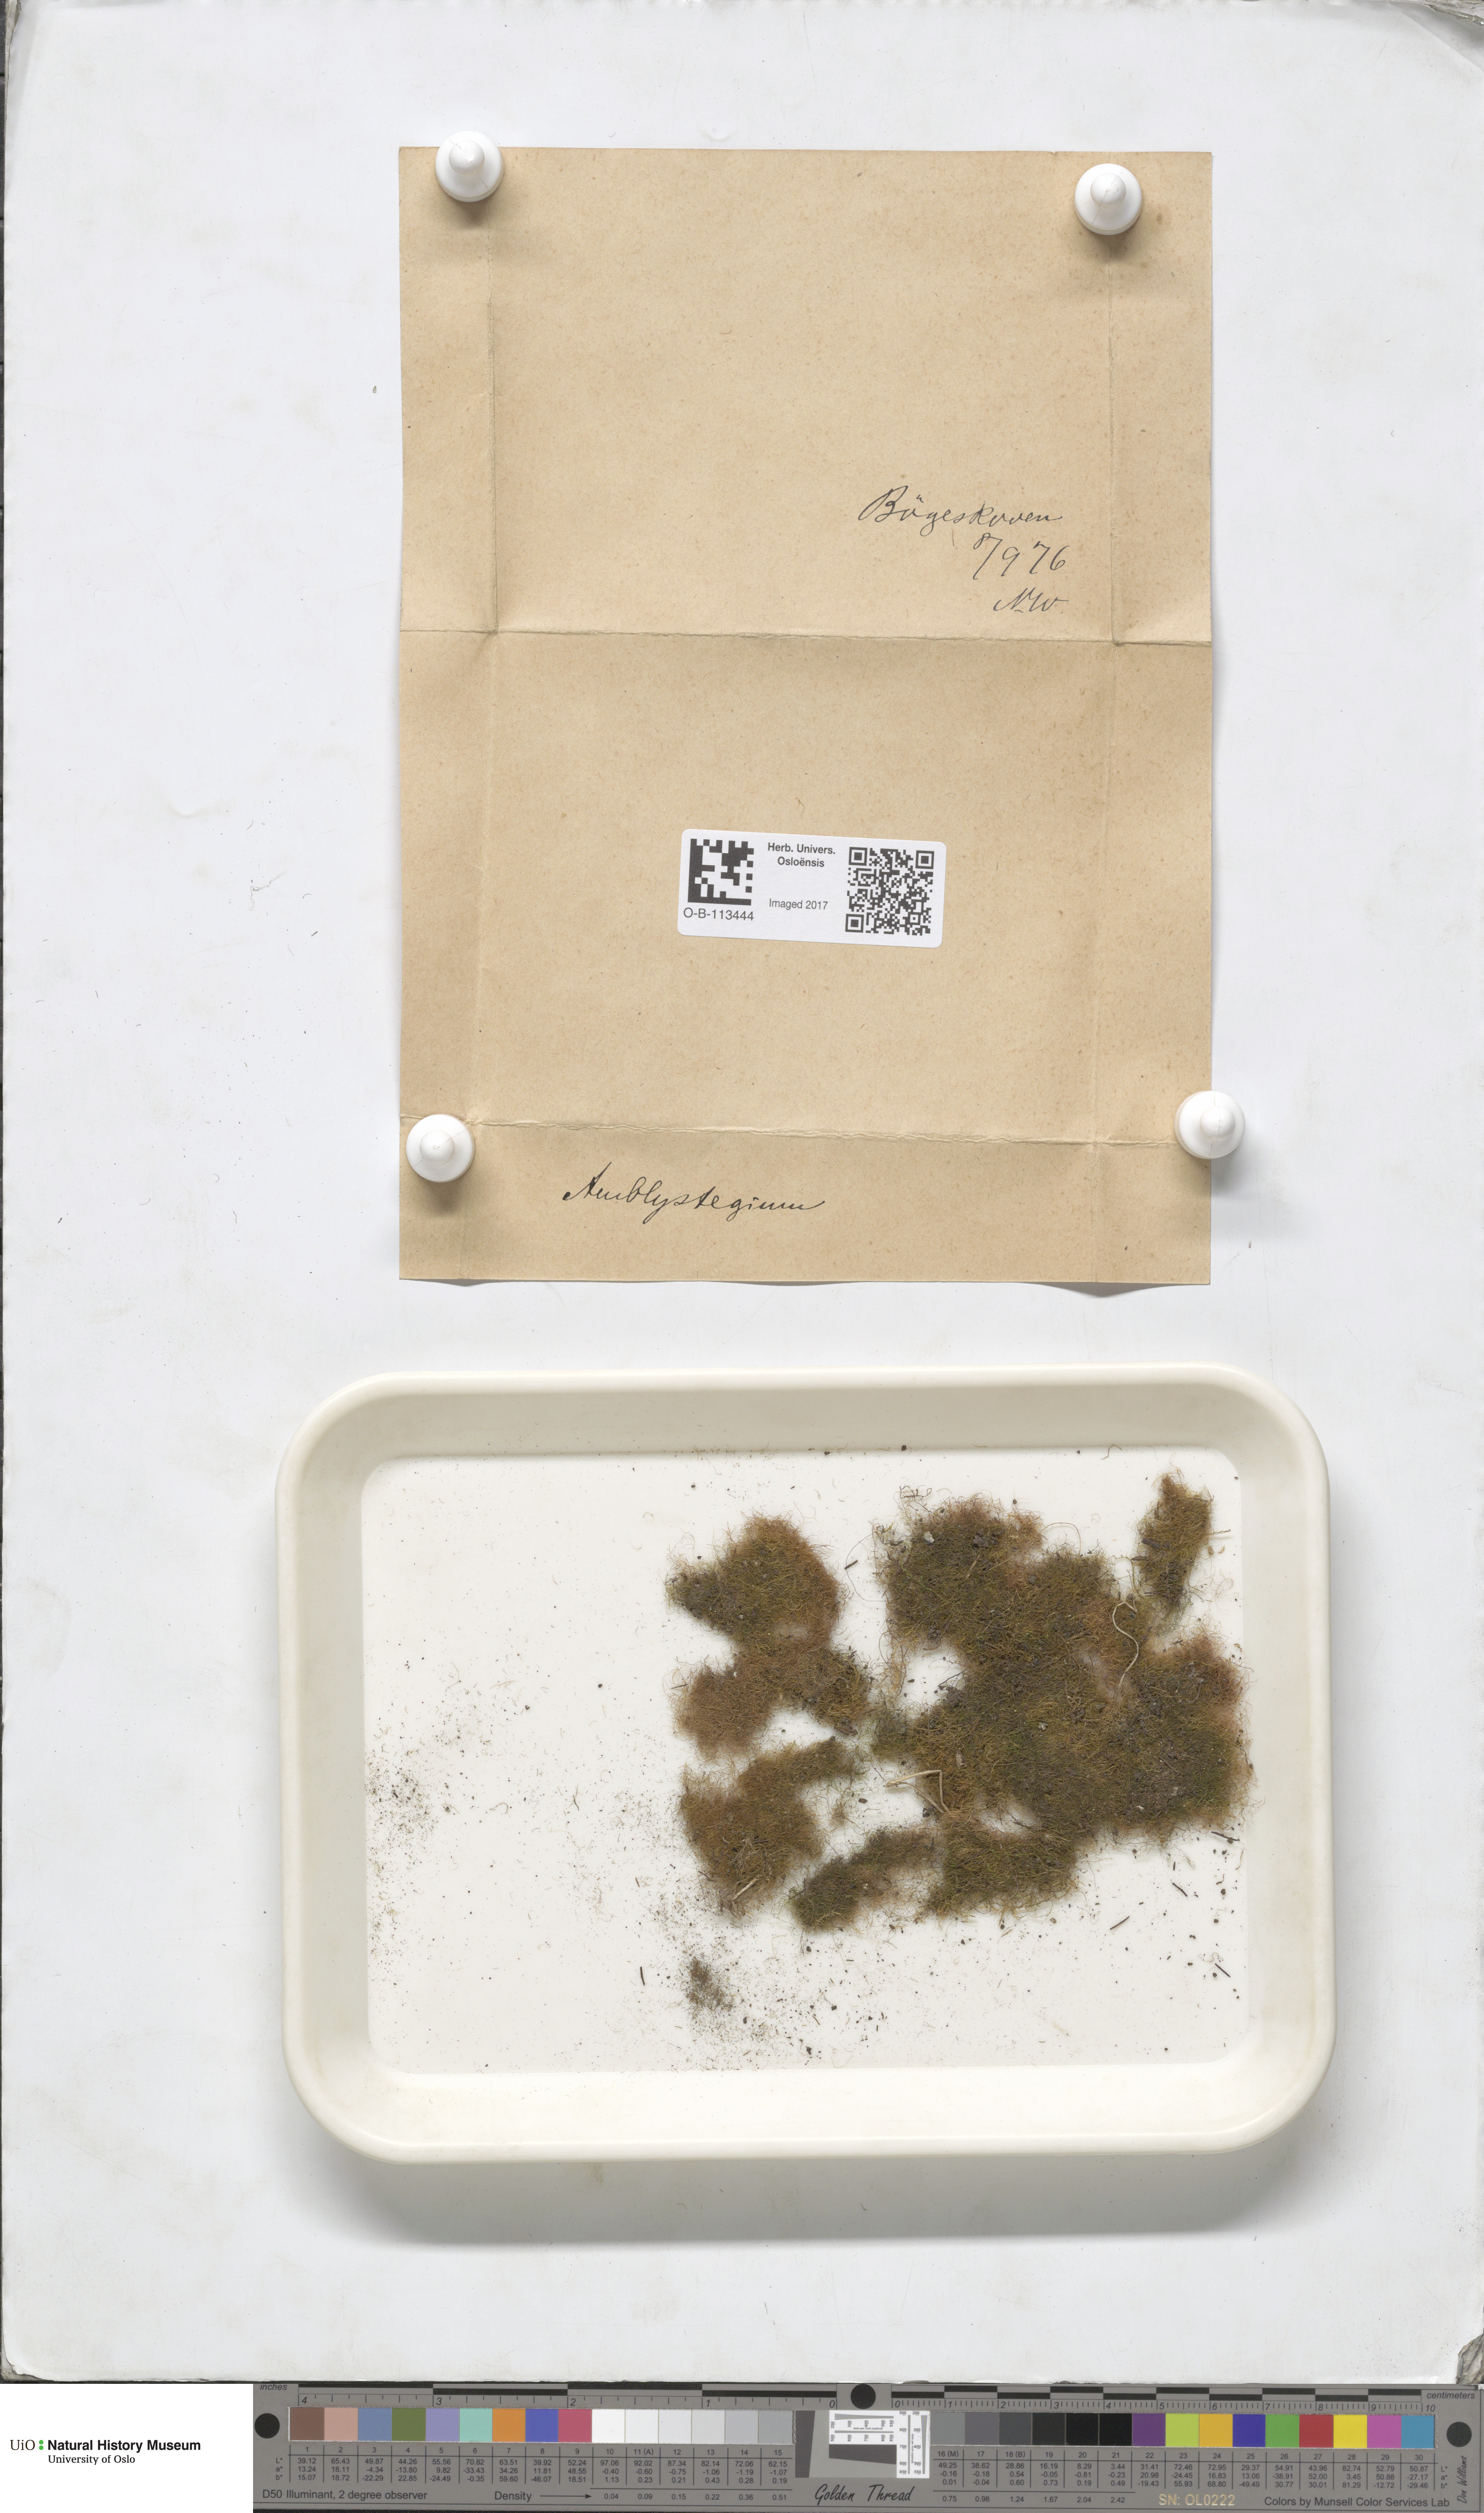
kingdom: Plantae
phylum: Bryophyta
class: Bryopsida
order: Hypnales
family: Amblystegiaceae
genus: Amblystegium
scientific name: Amblystegium
